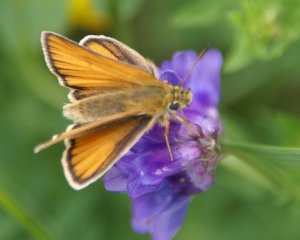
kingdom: Animalia
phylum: Arthropoda
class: Insecta
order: Lepidoptera
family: Hesperiidae
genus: Thymelicus
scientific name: Thymelicus lineola
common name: European Skipper
